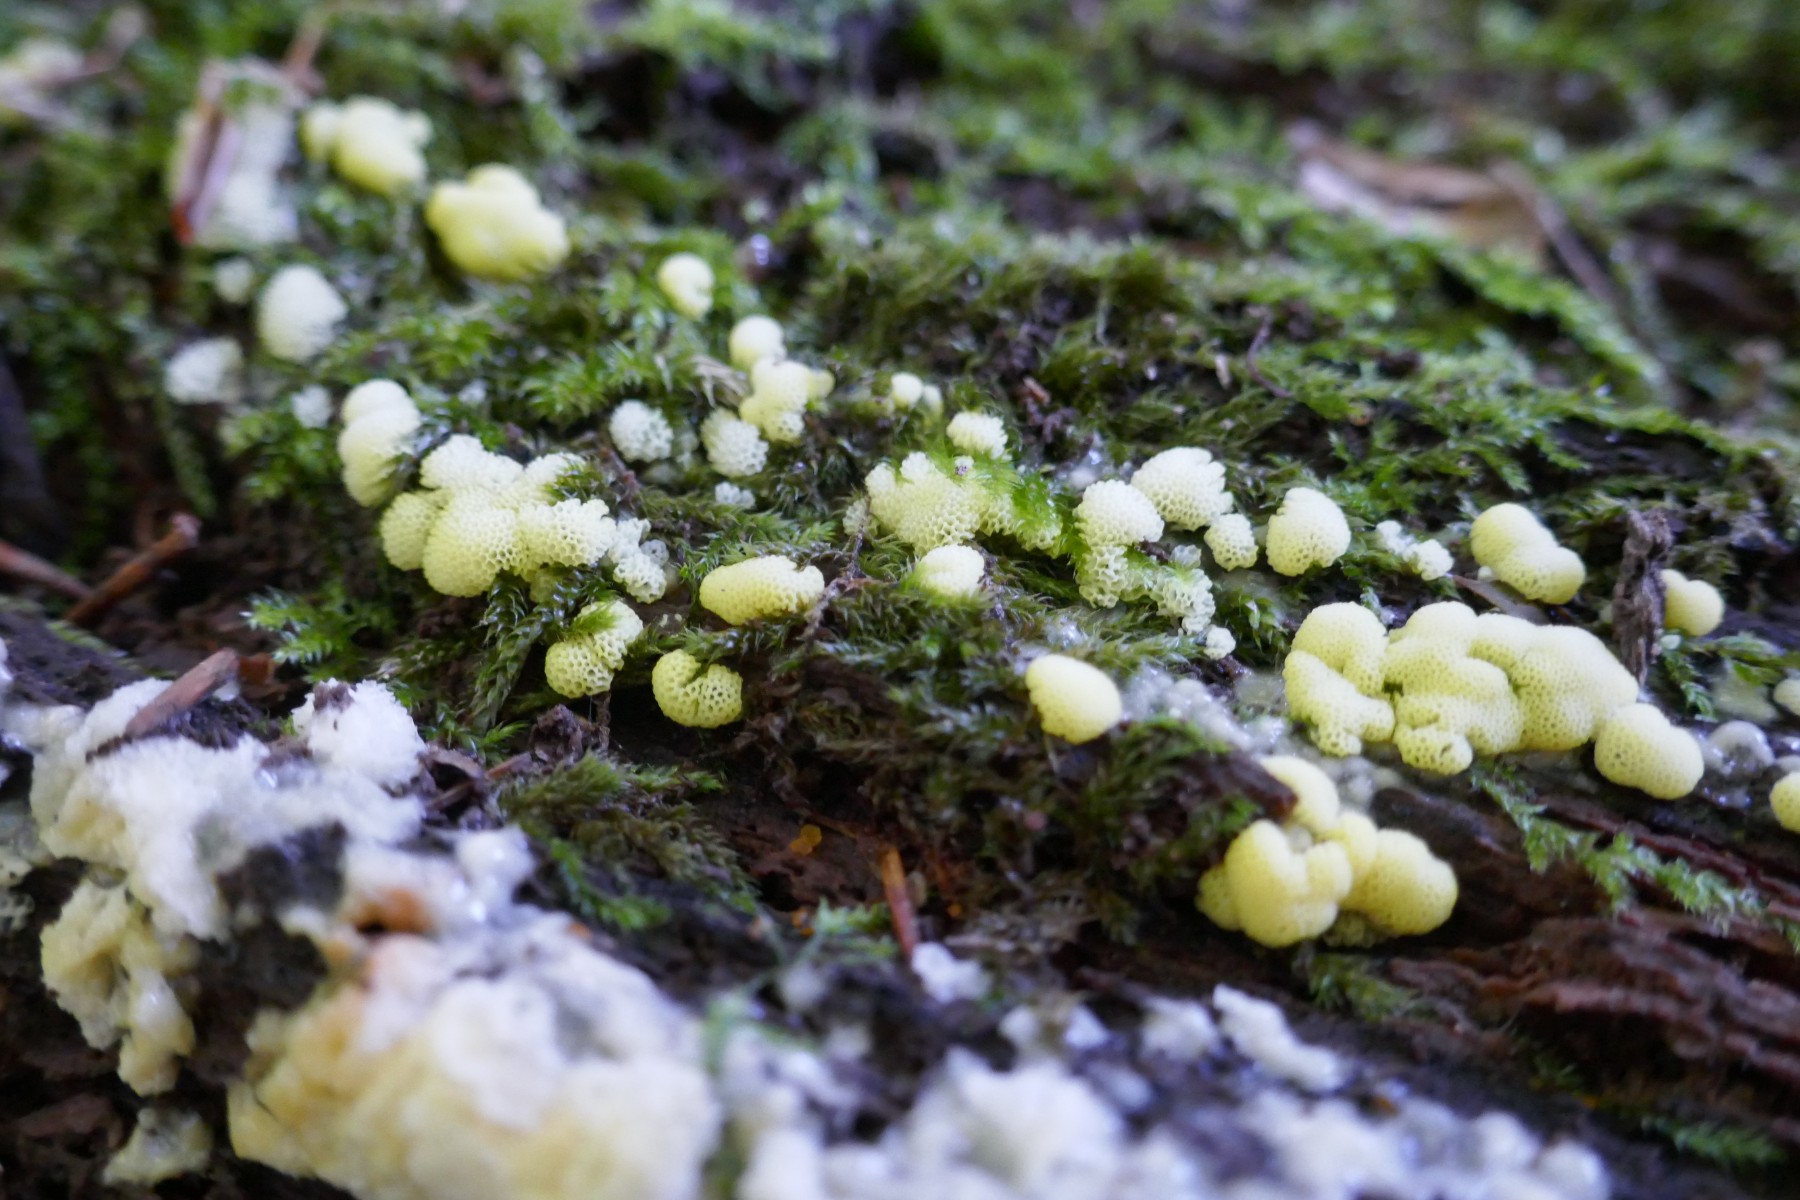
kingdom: Protozoa
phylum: Mycetozoa
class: Protosteliomycetes
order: Ceratiomyxales
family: Ceratiomyxaceae
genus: Ceratiomyxa
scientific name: Ceratiomyxa fruticulosa
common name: Honeycomb coral slime mold
